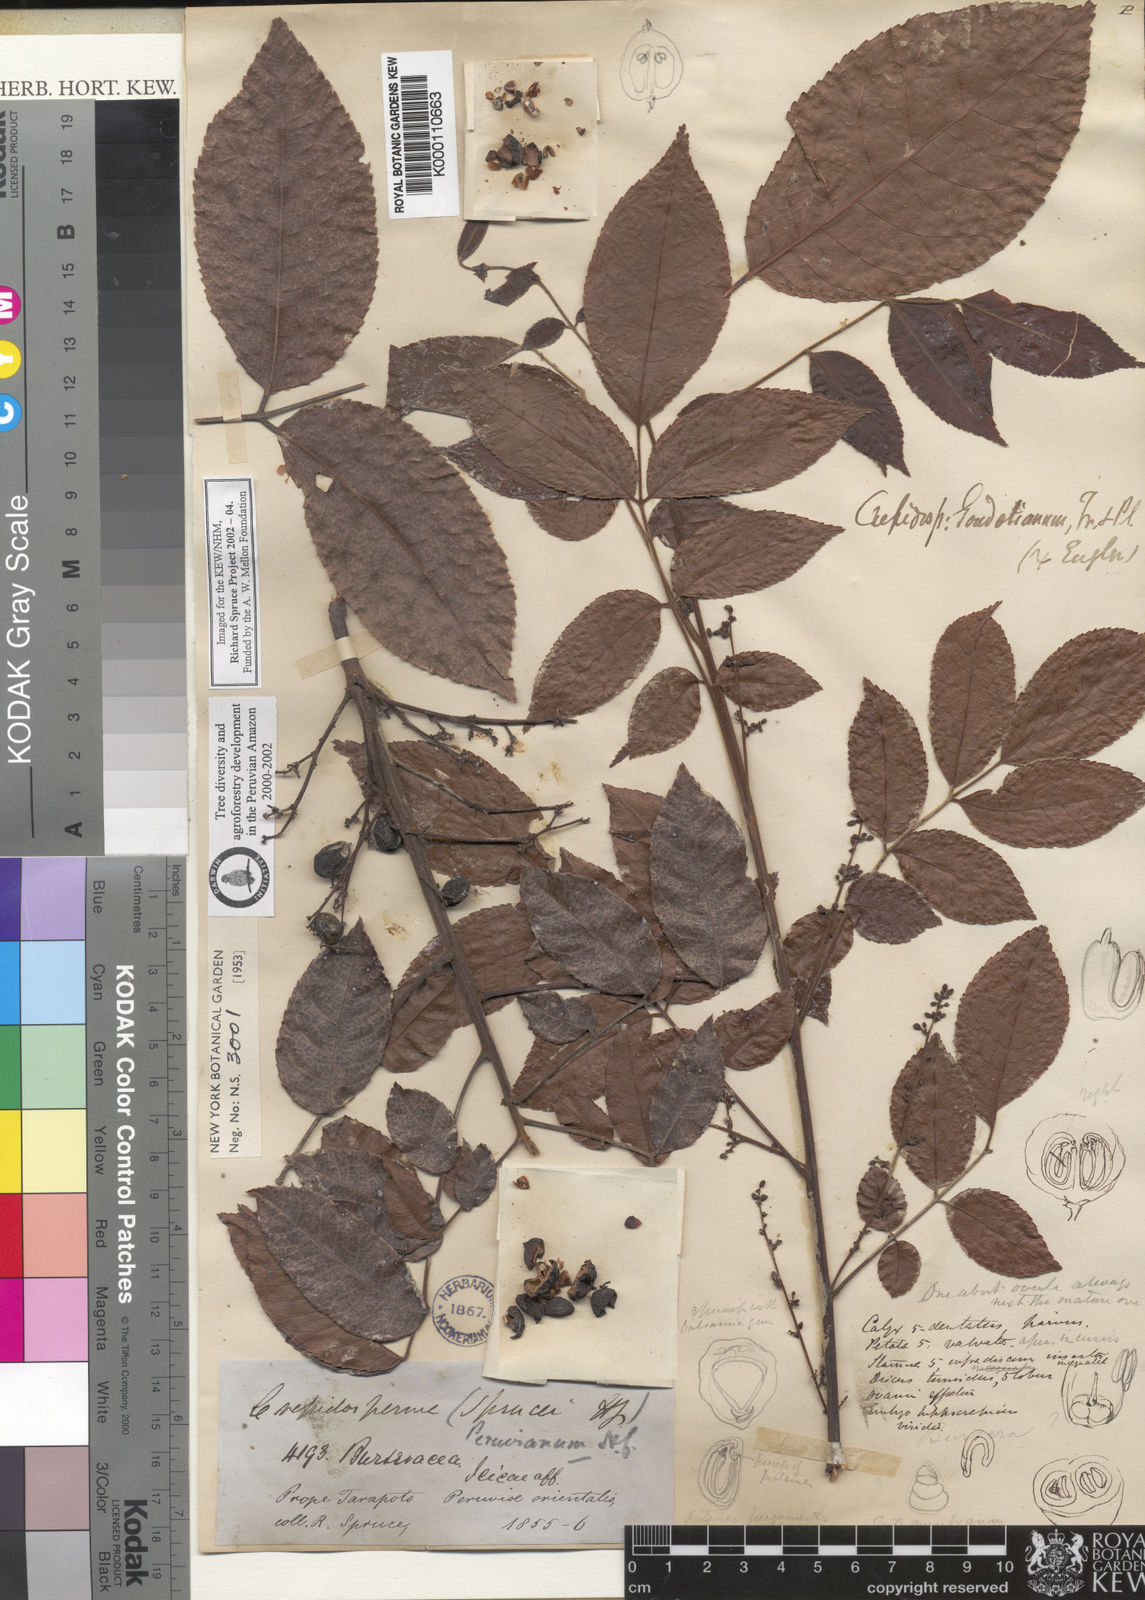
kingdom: Plantae
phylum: Tracheophyta
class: Magnoliopsida
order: Sapindales
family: Burseraceae
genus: Crepidospermum
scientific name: Crepidospermum goudotianum
